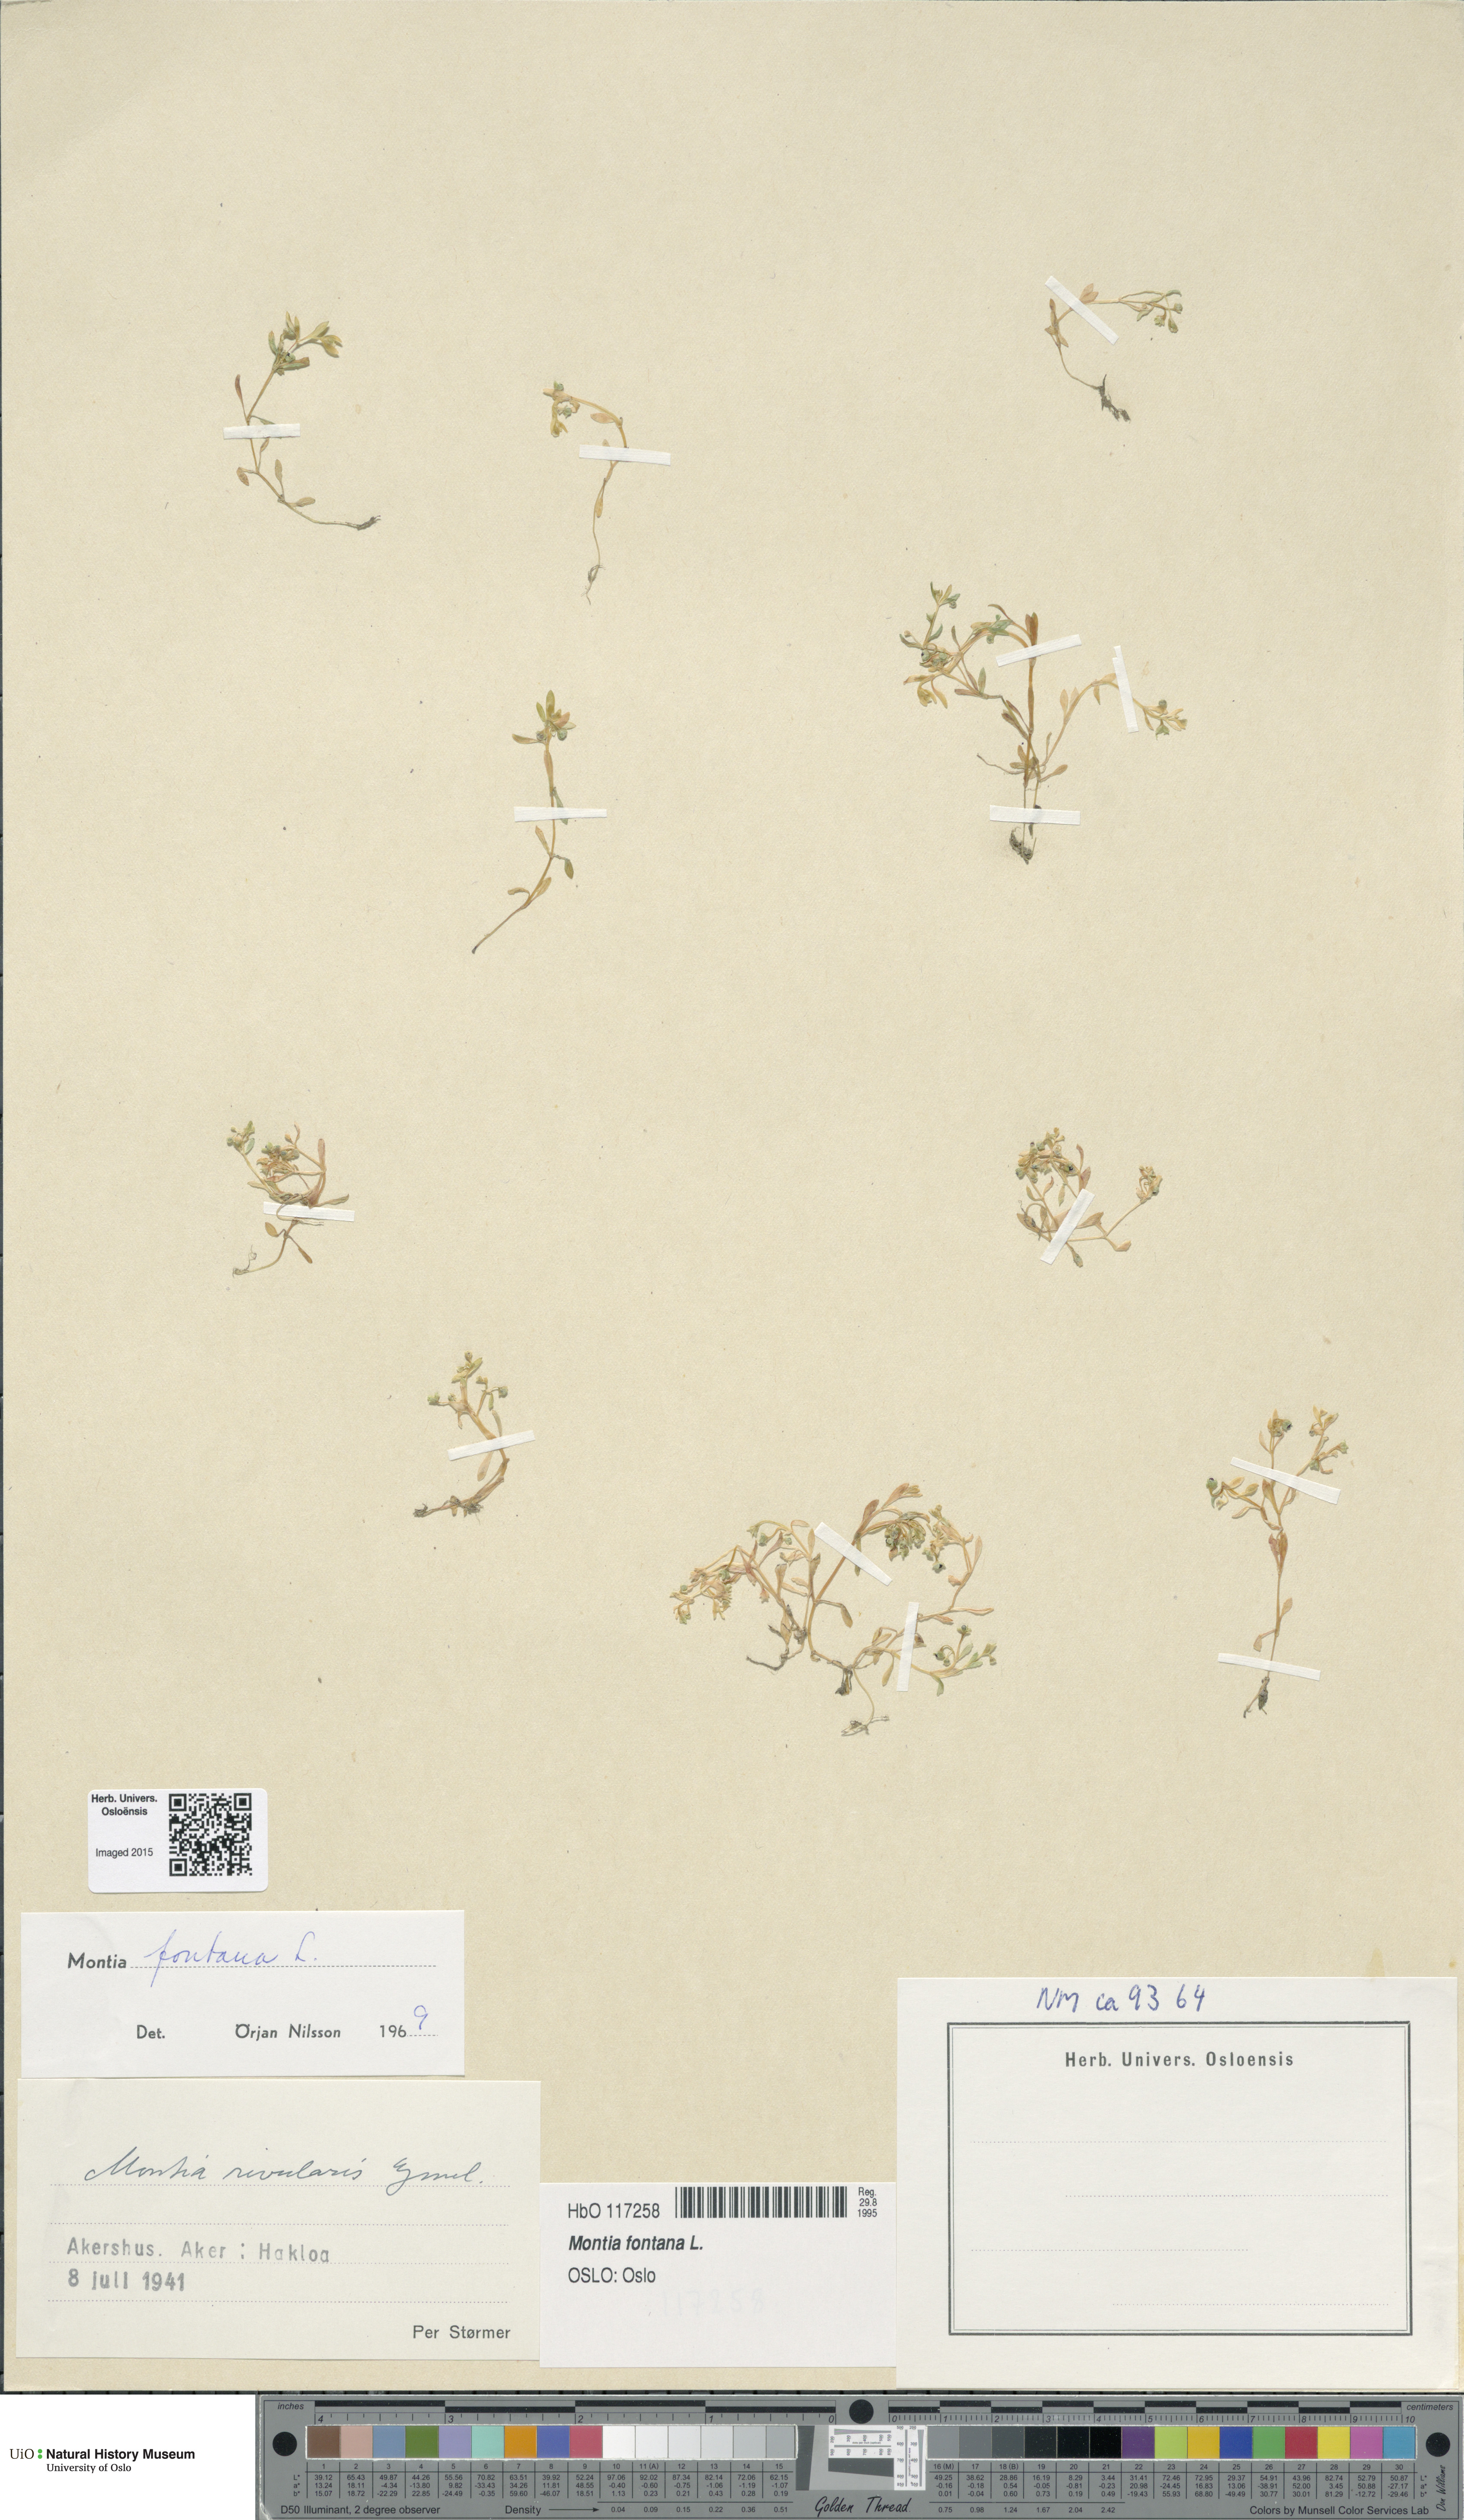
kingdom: Plantae
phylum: Tracheophyta
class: Magnoliopsida
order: Caryophyllales
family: Montiaceae
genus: Montia
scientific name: Montia fontana
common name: Blinks
